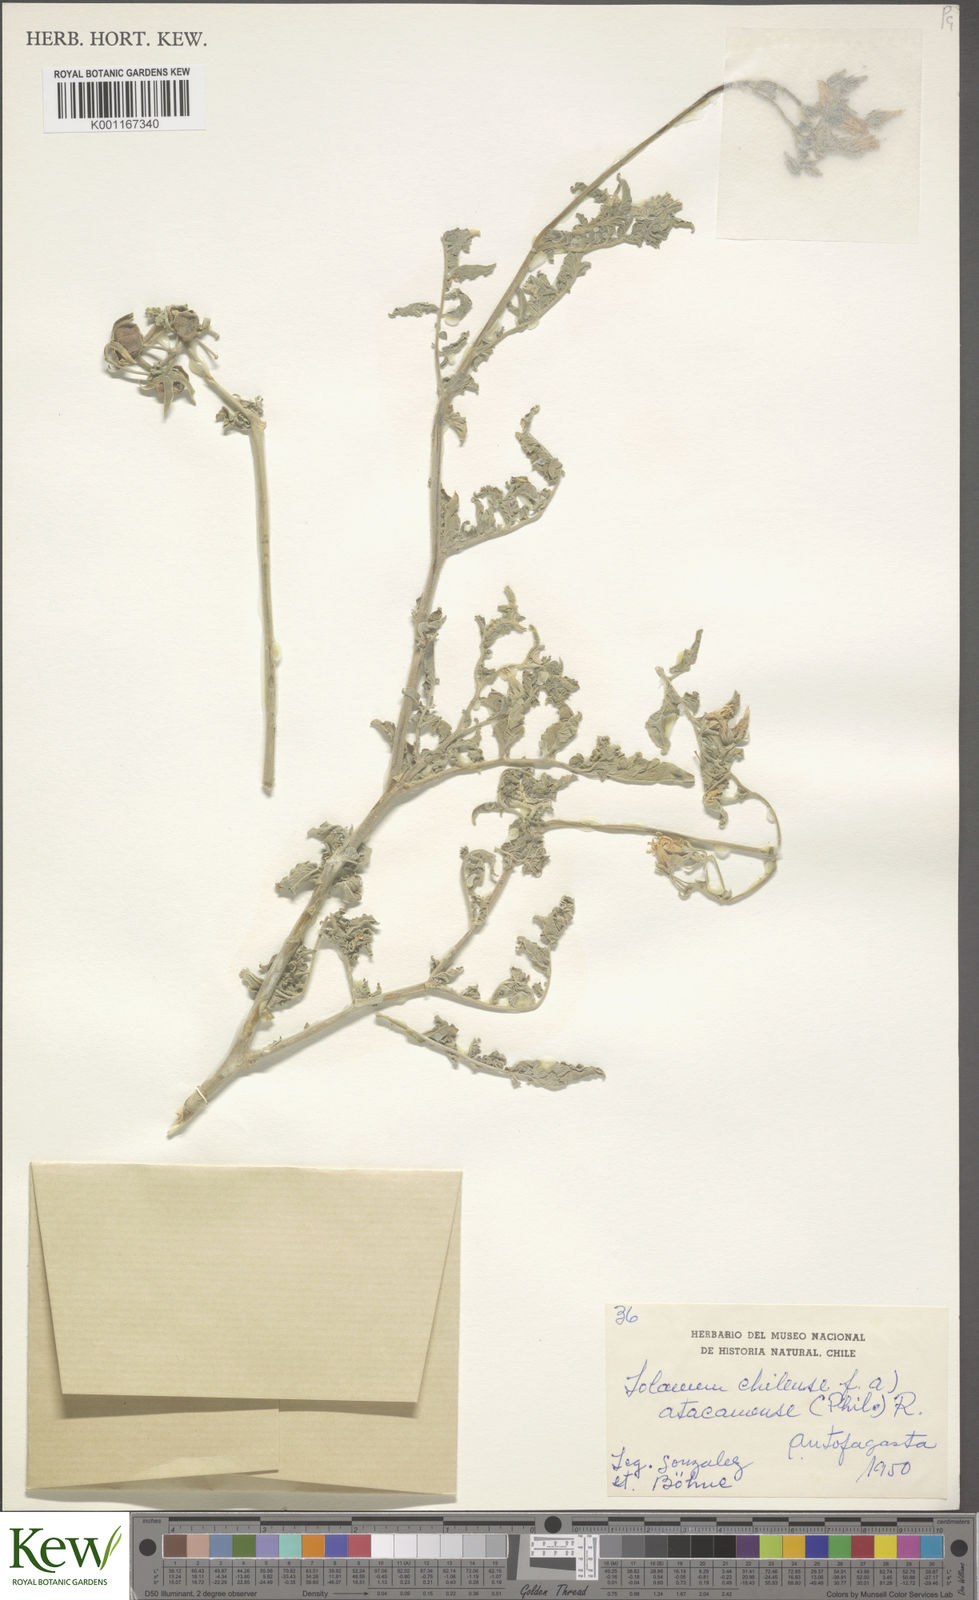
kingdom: Plantae
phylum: Tracheophyta
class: Magnoliopsida
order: Solanales
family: Solanaceae
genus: Solanum
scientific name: Solanum chilense
